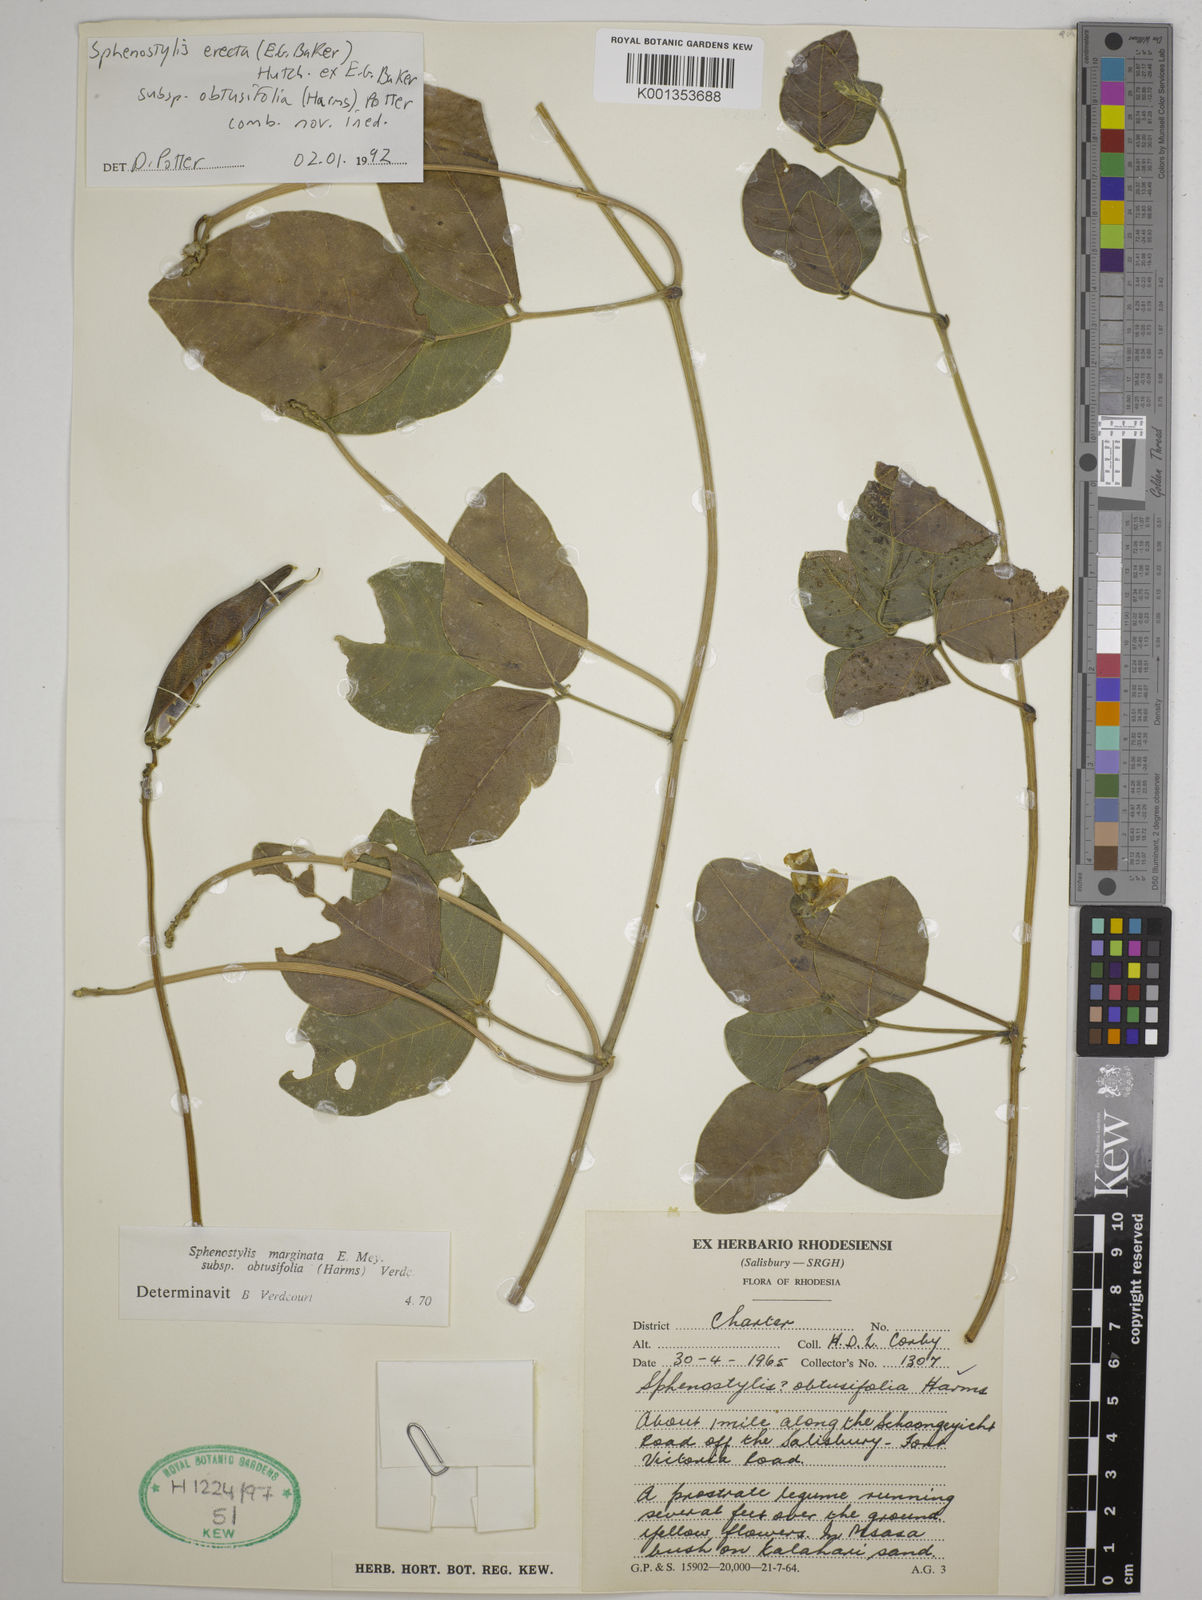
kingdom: Plantae
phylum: Tracheophyta
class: Magnoliopsida
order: Fabales
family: Fabaceae
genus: Sphenostylis
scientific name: Sphenostylis erecta
